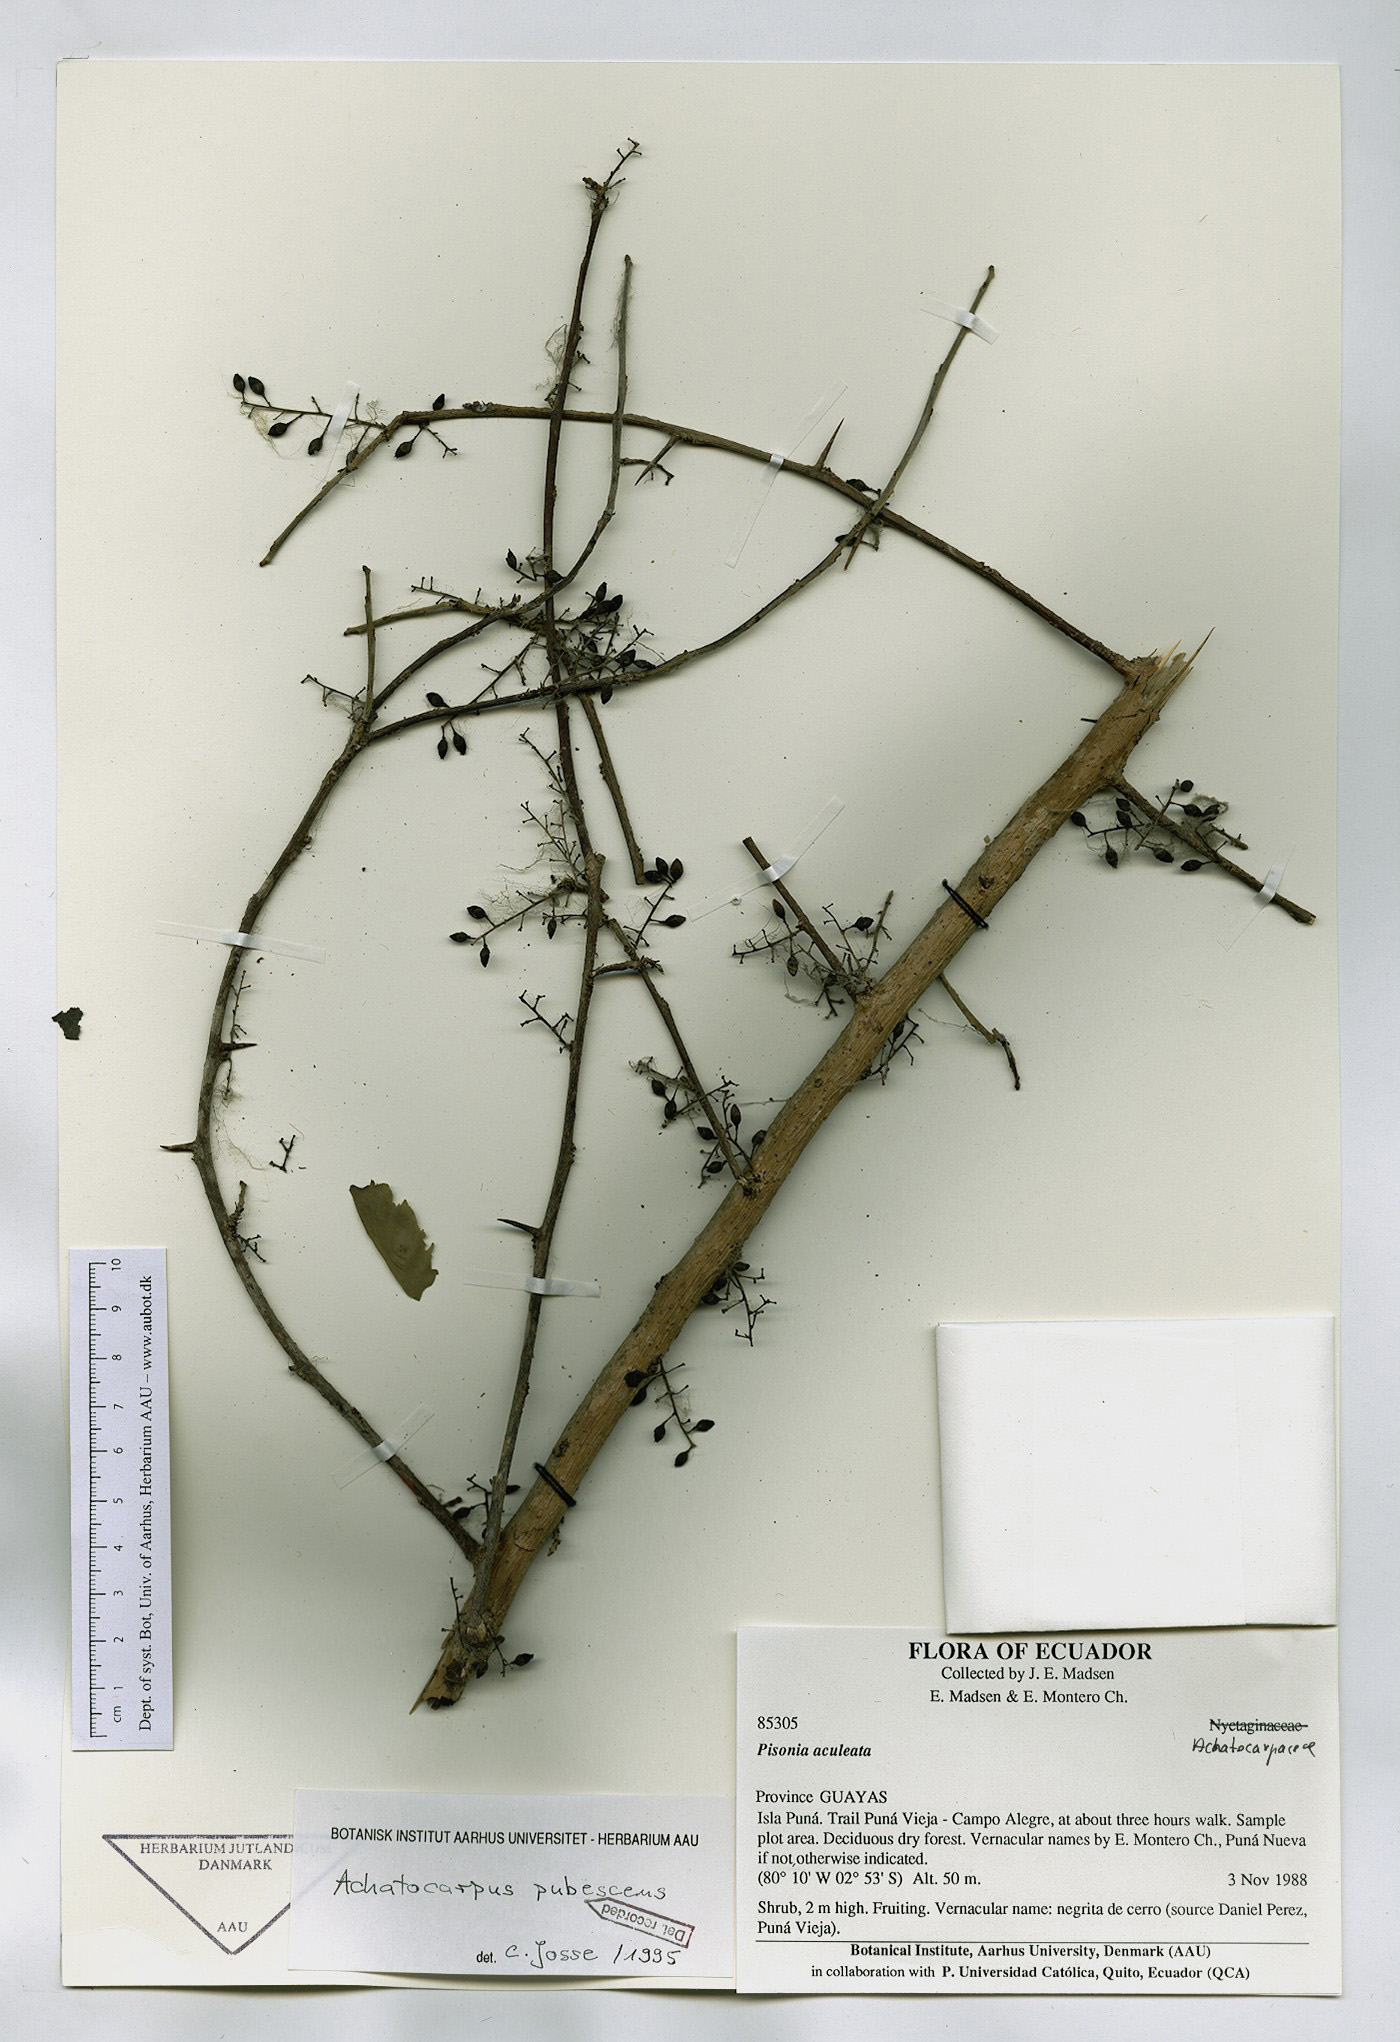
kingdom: Plantae
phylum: Tracheophyta
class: Magnoliopsida
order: Caryophyllales
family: Achatocarpaceae
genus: Achatocarpus
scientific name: Achatocarpus pubescens
